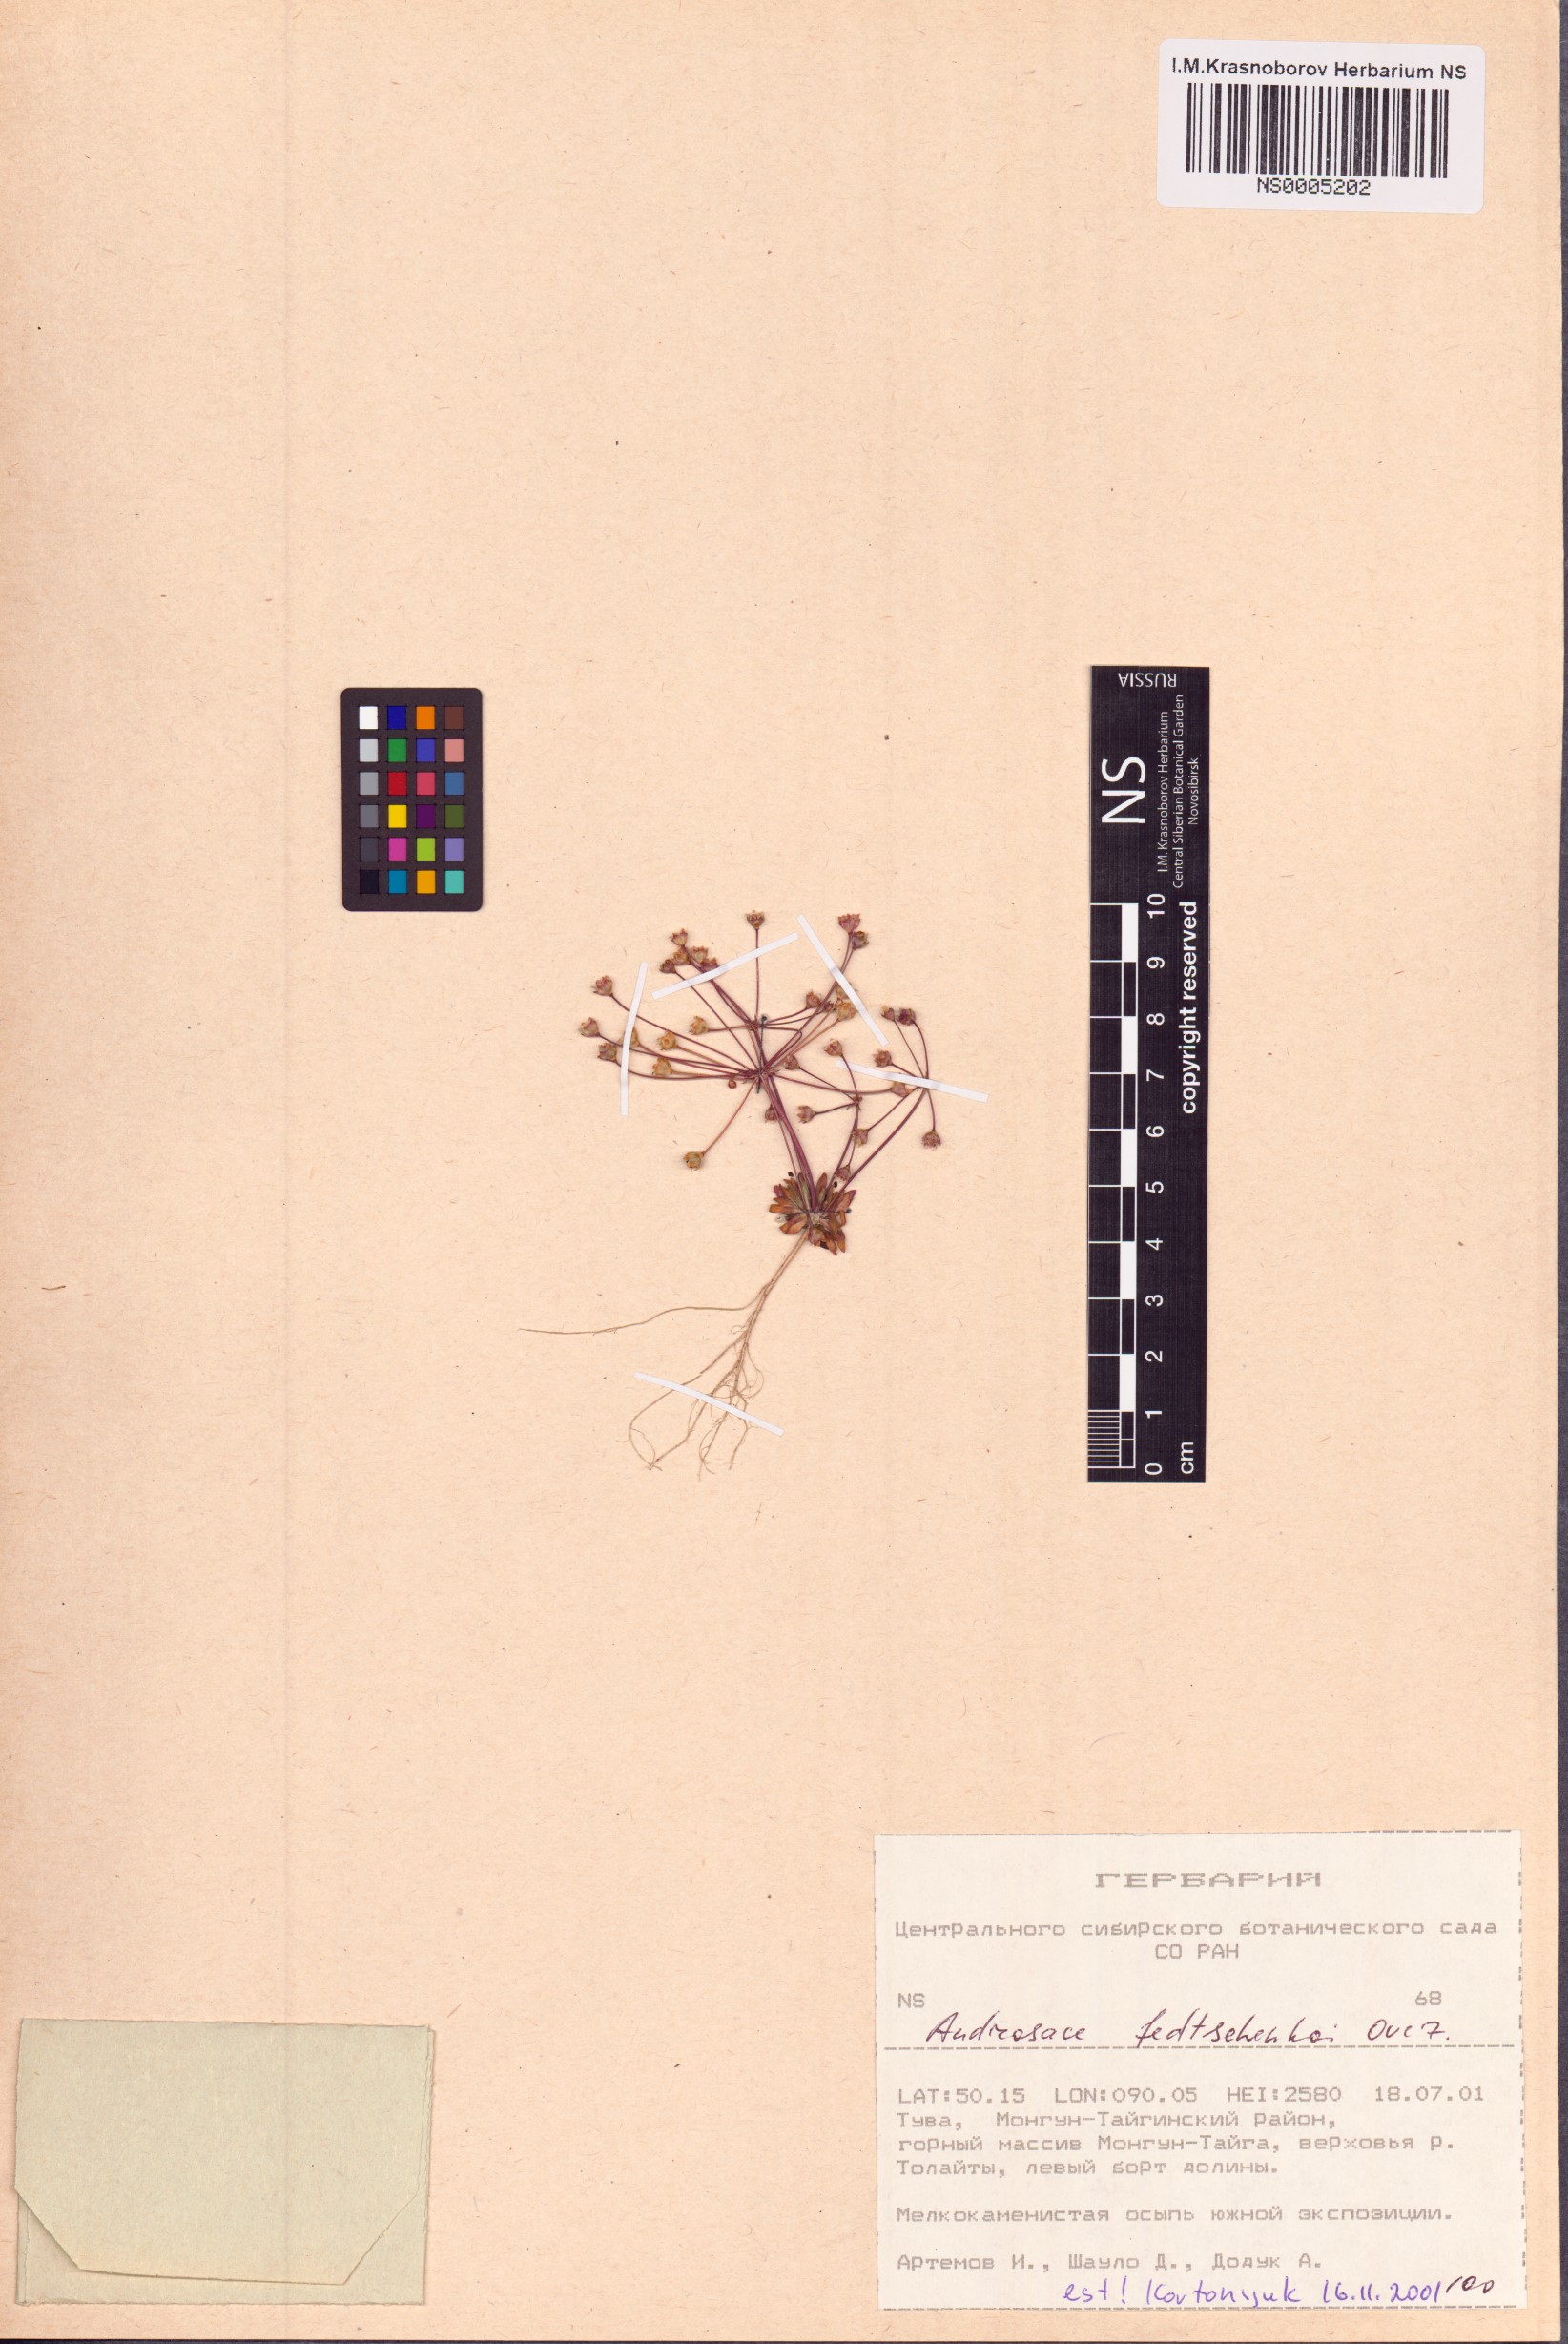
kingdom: Plantae
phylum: Tracheophyta
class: Magnoliopsida
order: Ericales
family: Primulaceae
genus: Androsace
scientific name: Androsace fedtschenkoi
